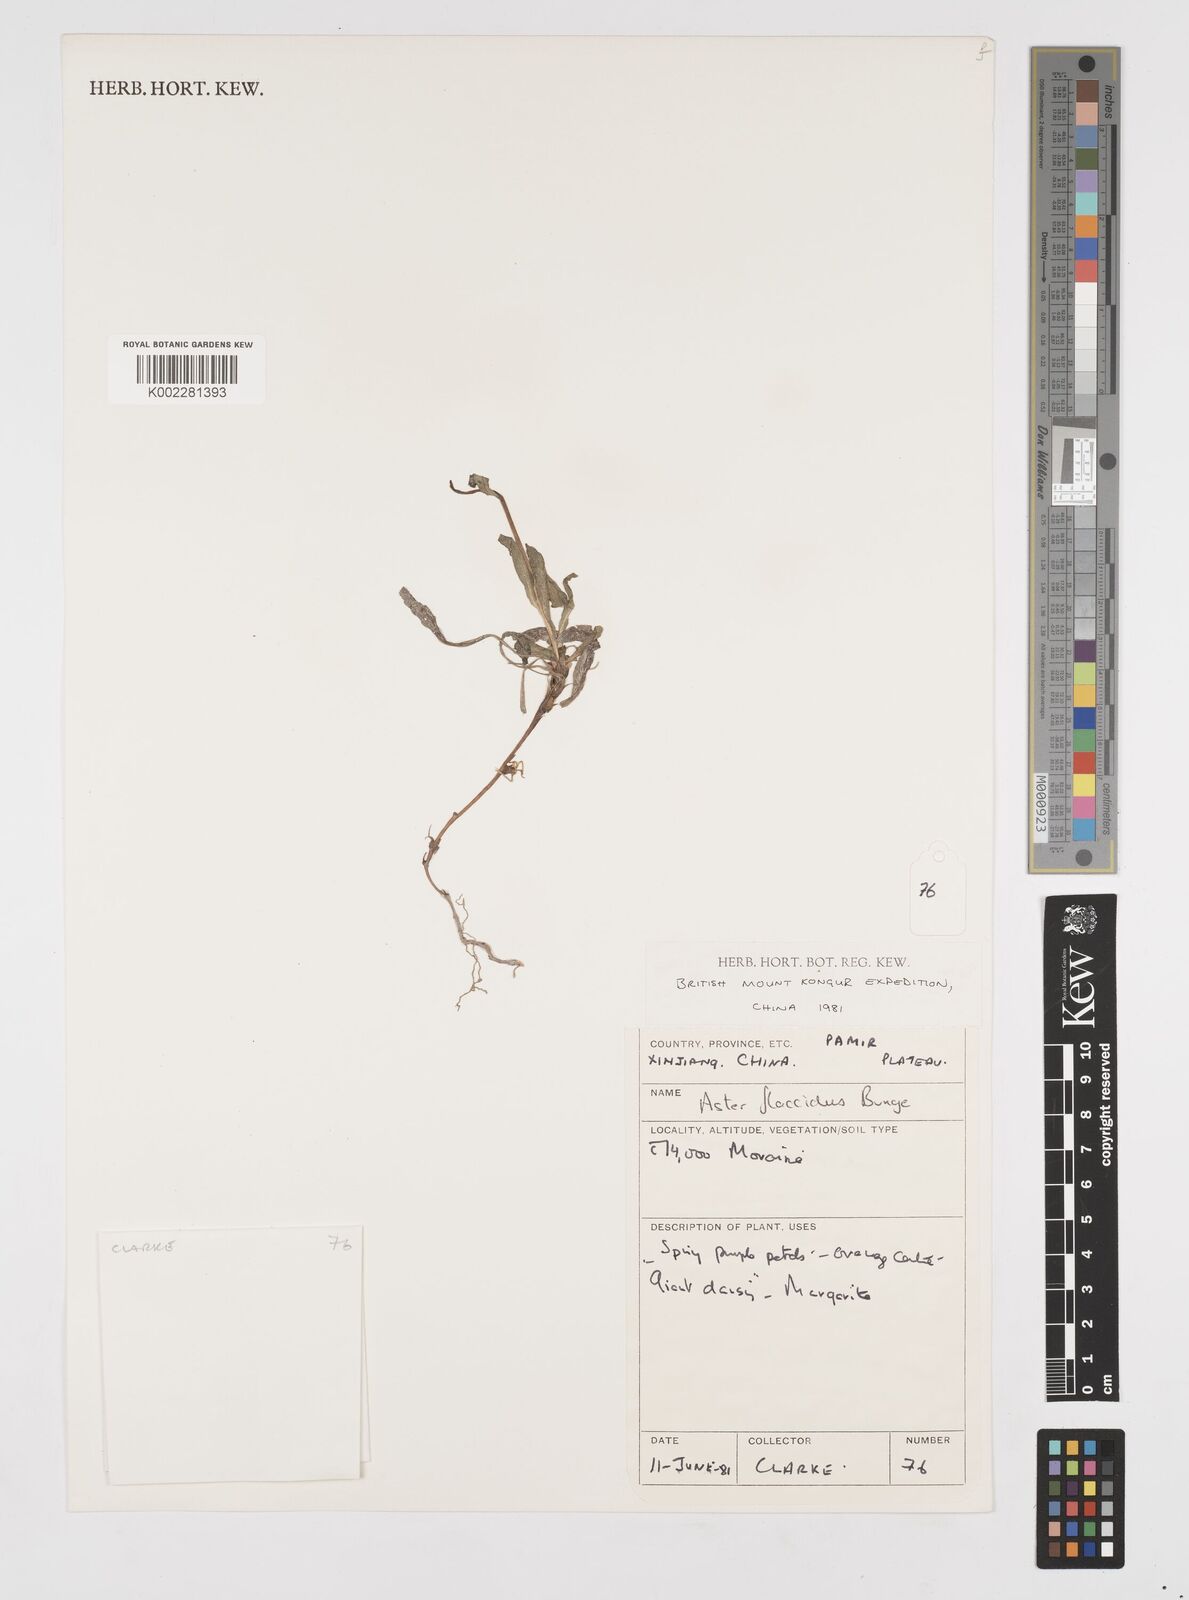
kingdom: Plantae
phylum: Tracheophyta
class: Magnoliopsida
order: Asterales
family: Asteraceae
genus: Tibetiodes
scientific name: Tibetiodes flaccida
